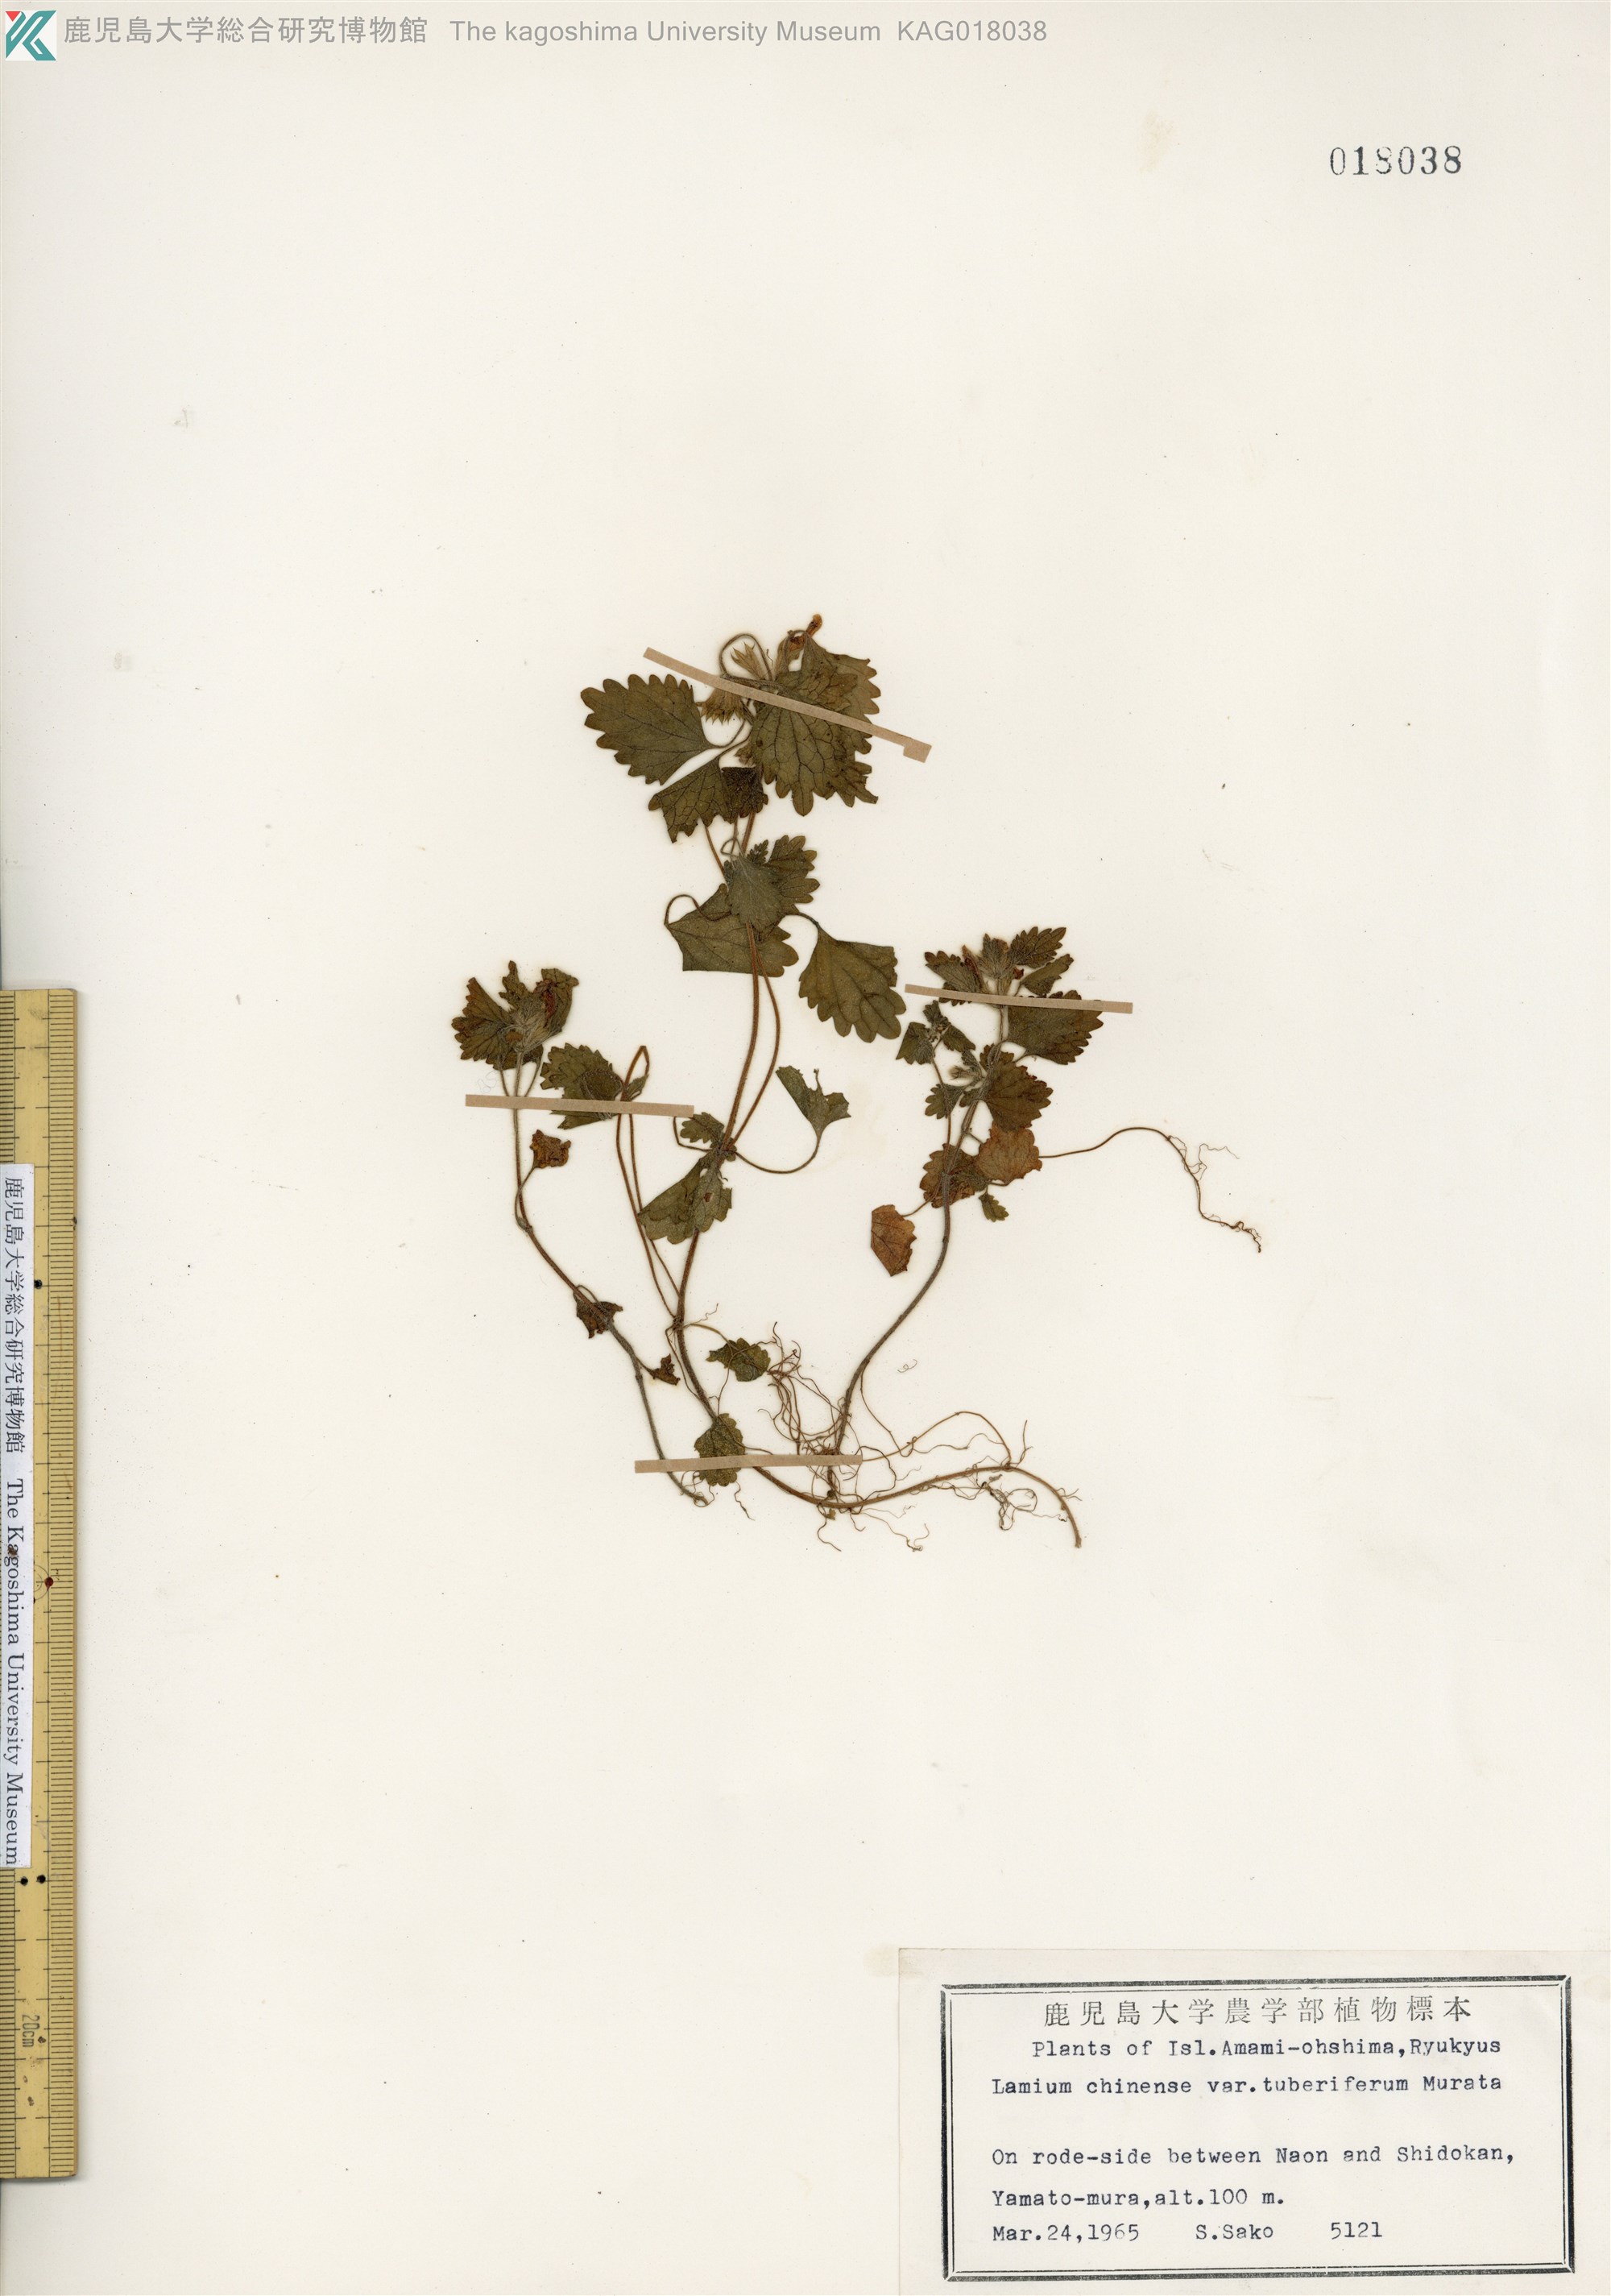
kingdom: Plantae
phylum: Tracheophyta
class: Magnoliopsida
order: Lamiales
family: Lamiaceae
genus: Matsumurella
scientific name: Matsumurella tuberifera
